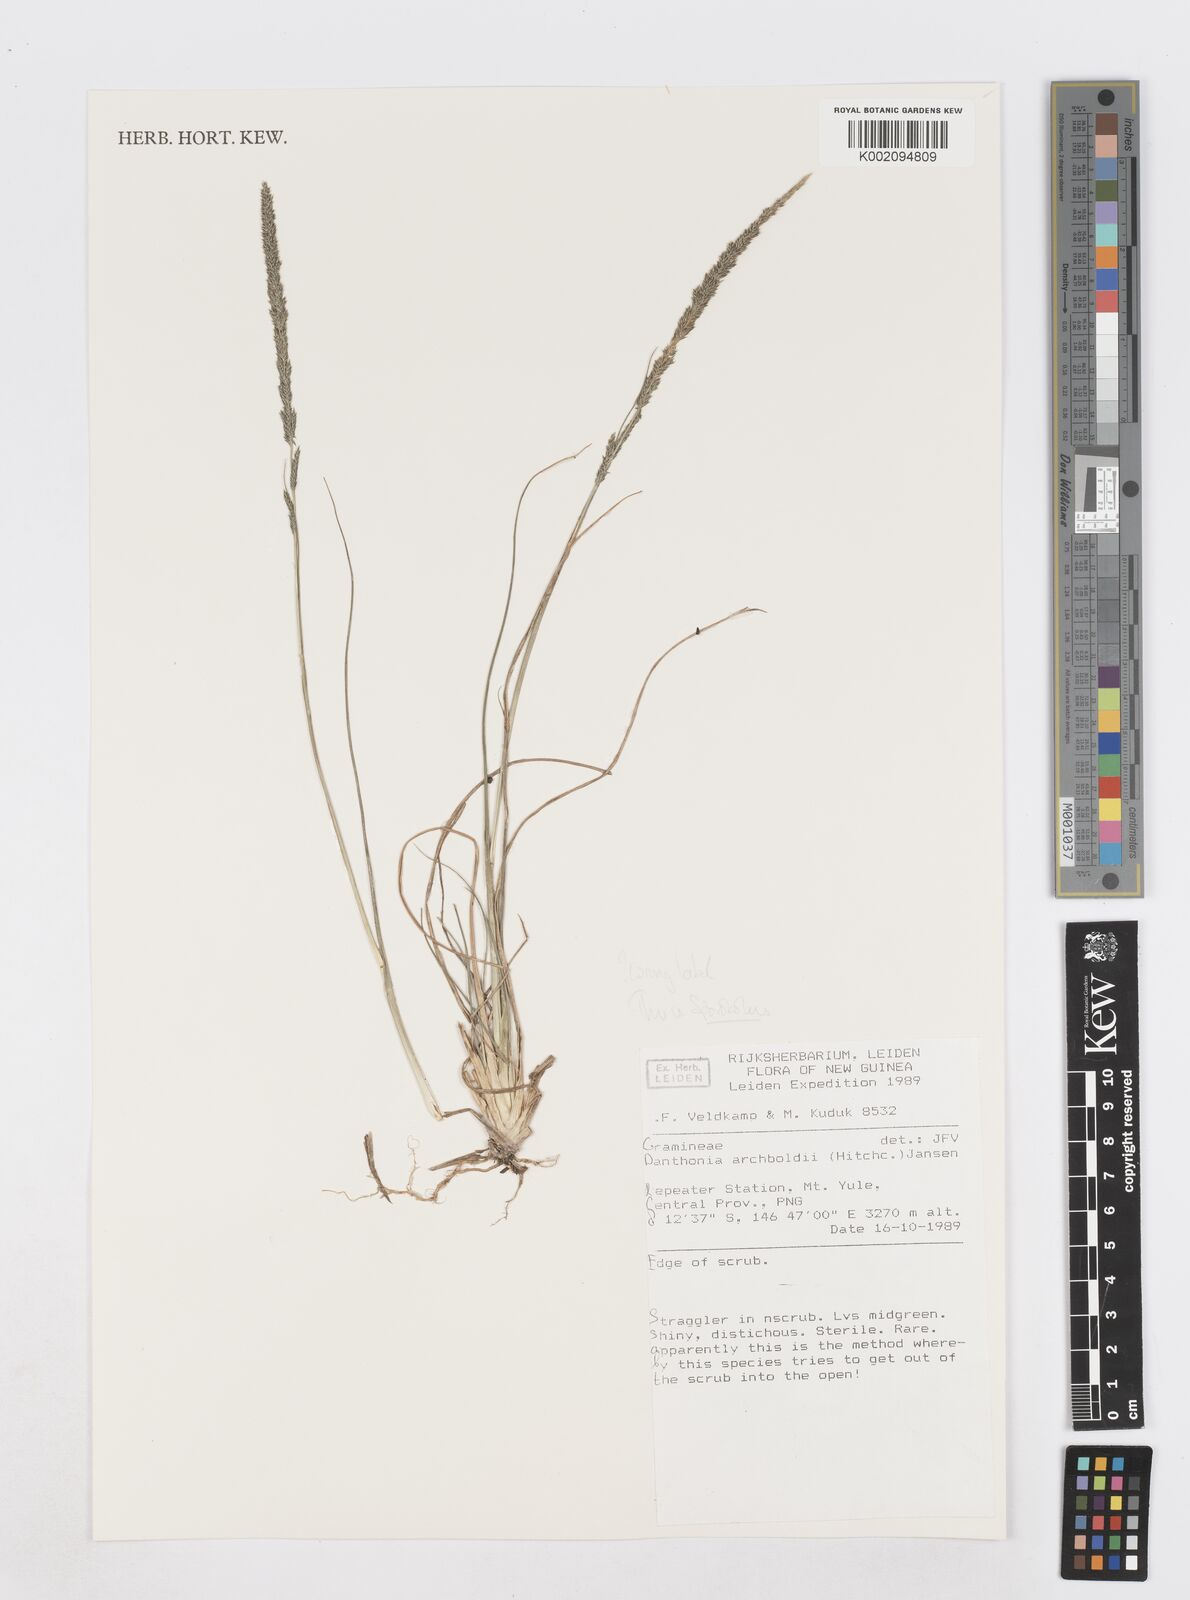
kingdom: Plantae
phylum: Tracheophyta
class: Liliopsida
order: Poales
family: Poaceae
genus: Sporobolus
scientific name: Sporobolus fertilis
